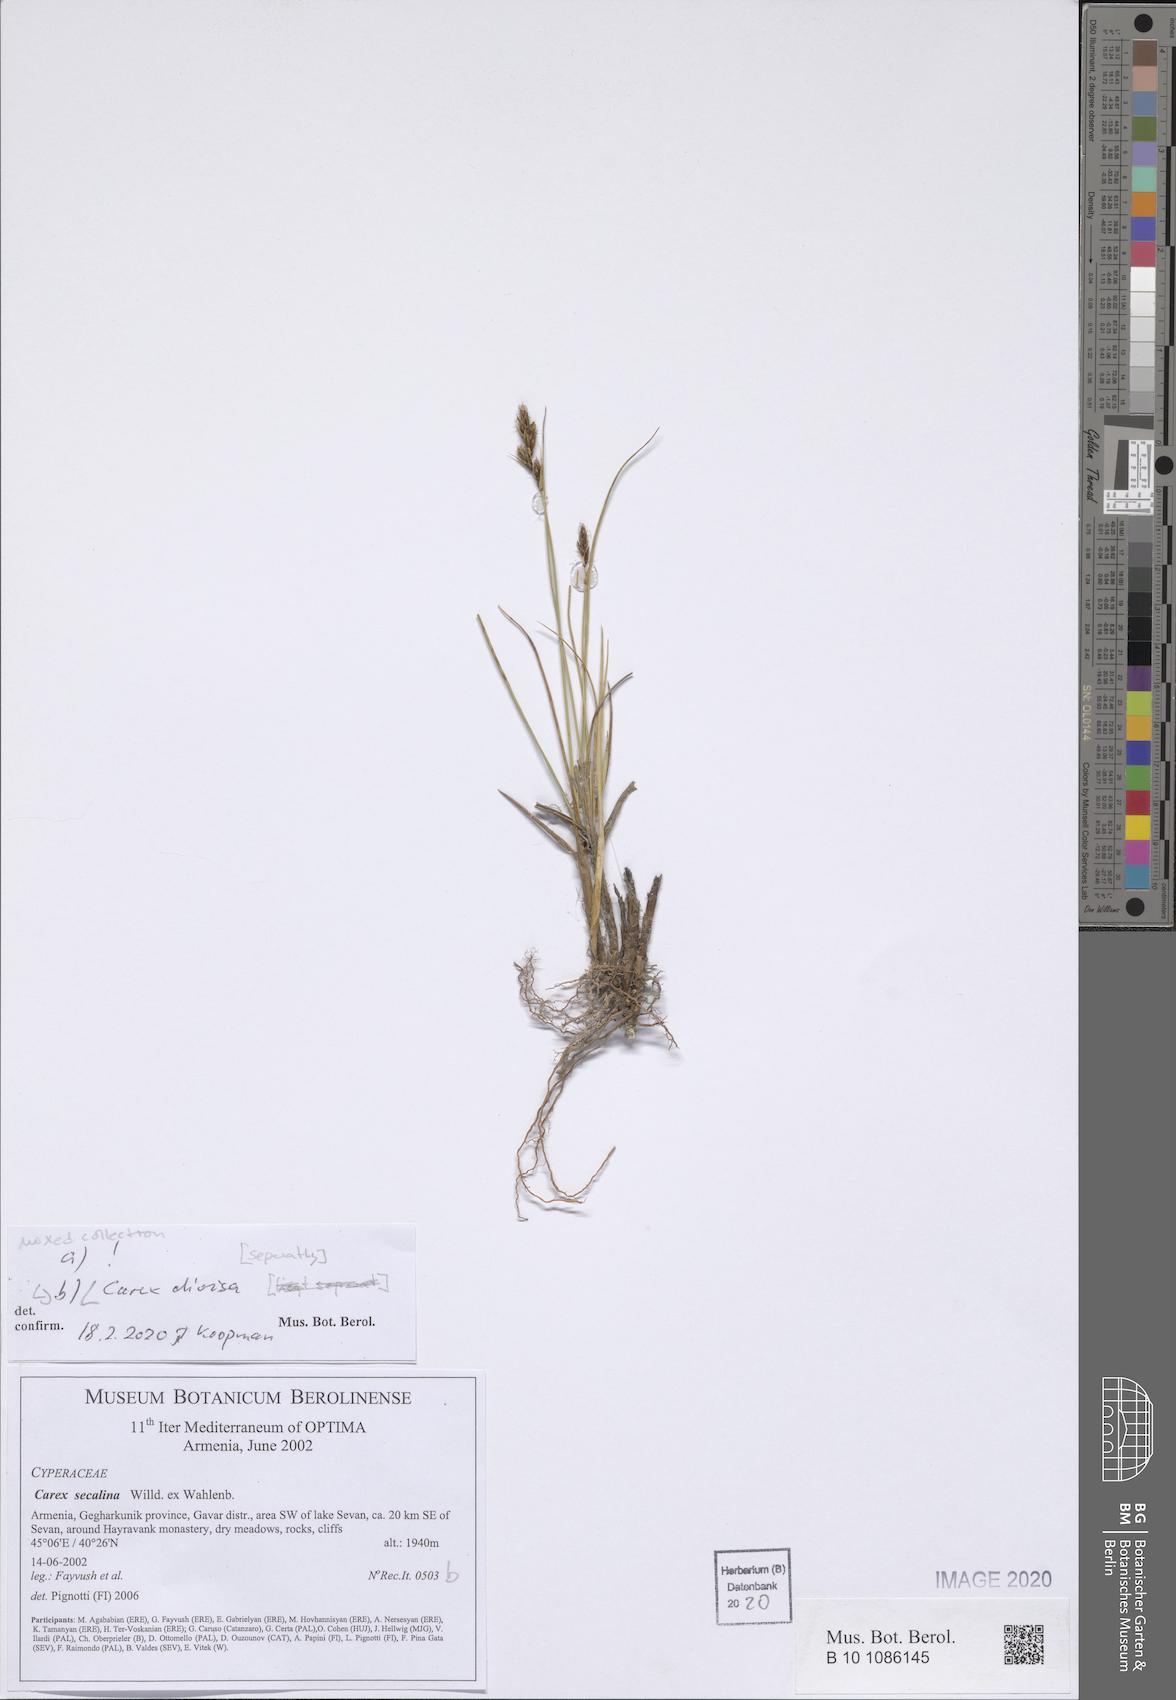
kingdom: Plantae
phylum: Tracheophyta
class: Liliopsida
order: Poales
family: Cyperaceae
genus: Carex
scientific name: Carex divisa
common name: Divided sedge
